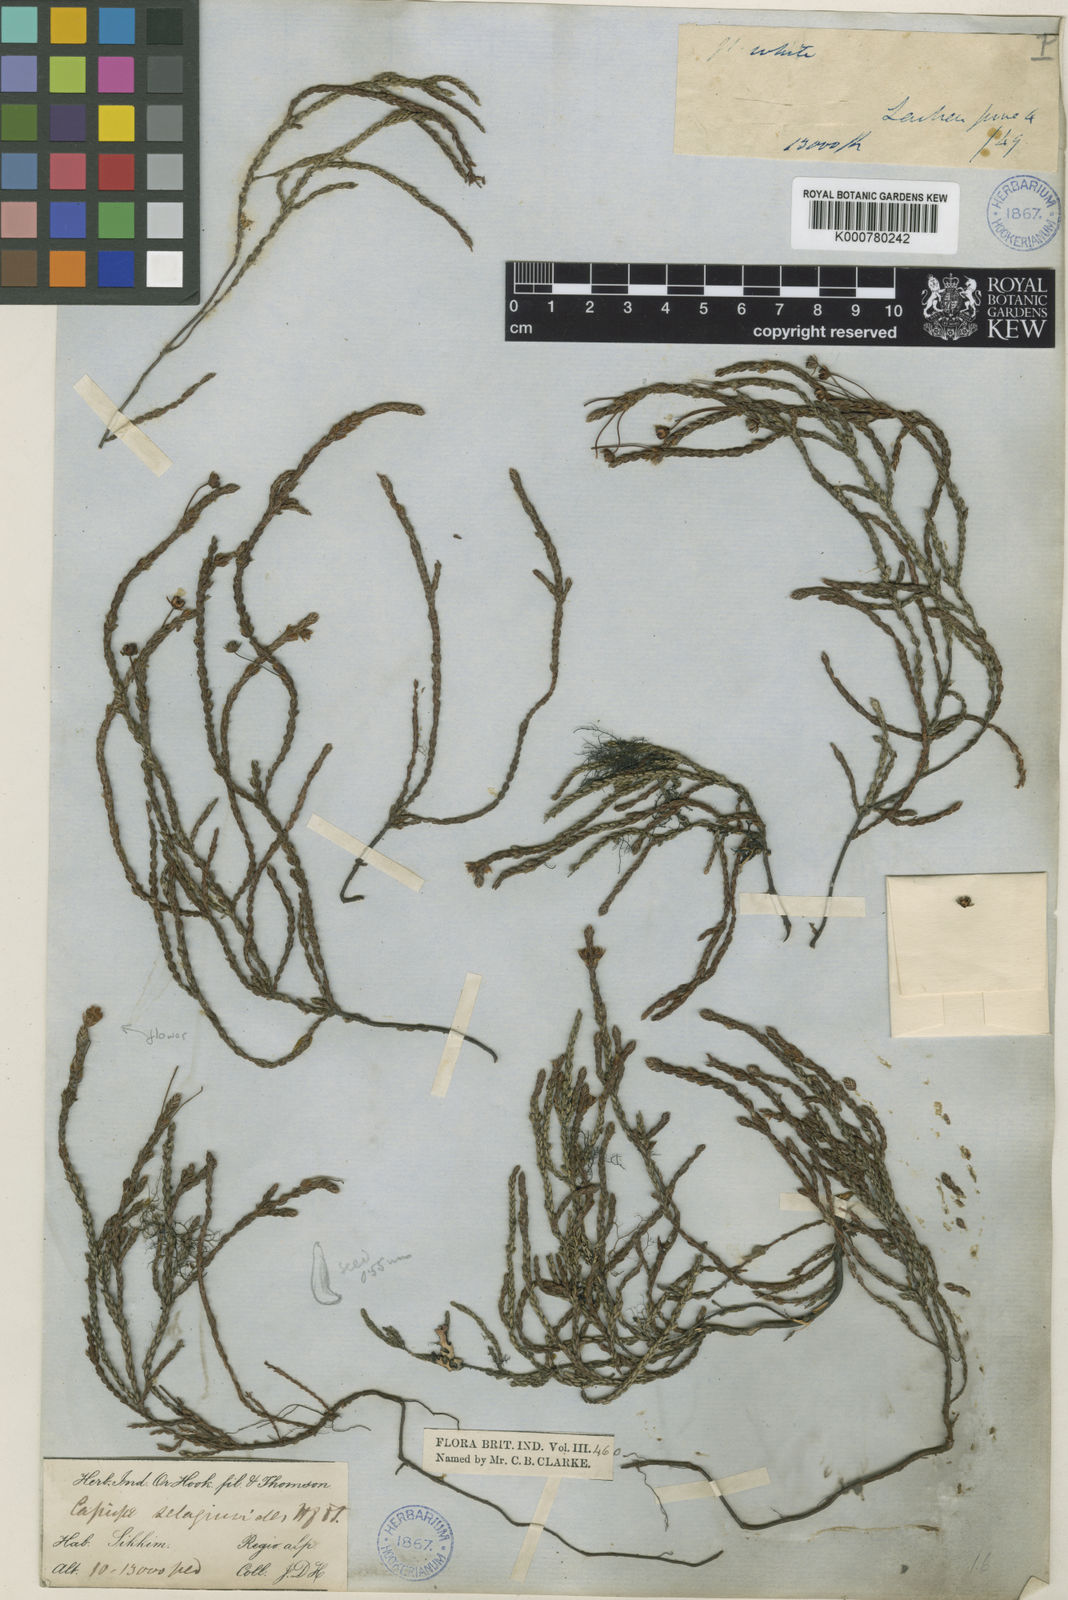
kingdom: Plantae
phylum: Tracheophyta
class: Magnoliopsida
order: Ericales
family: Ericaceae
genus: Cassiope
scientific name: Cassiope selaginoides
